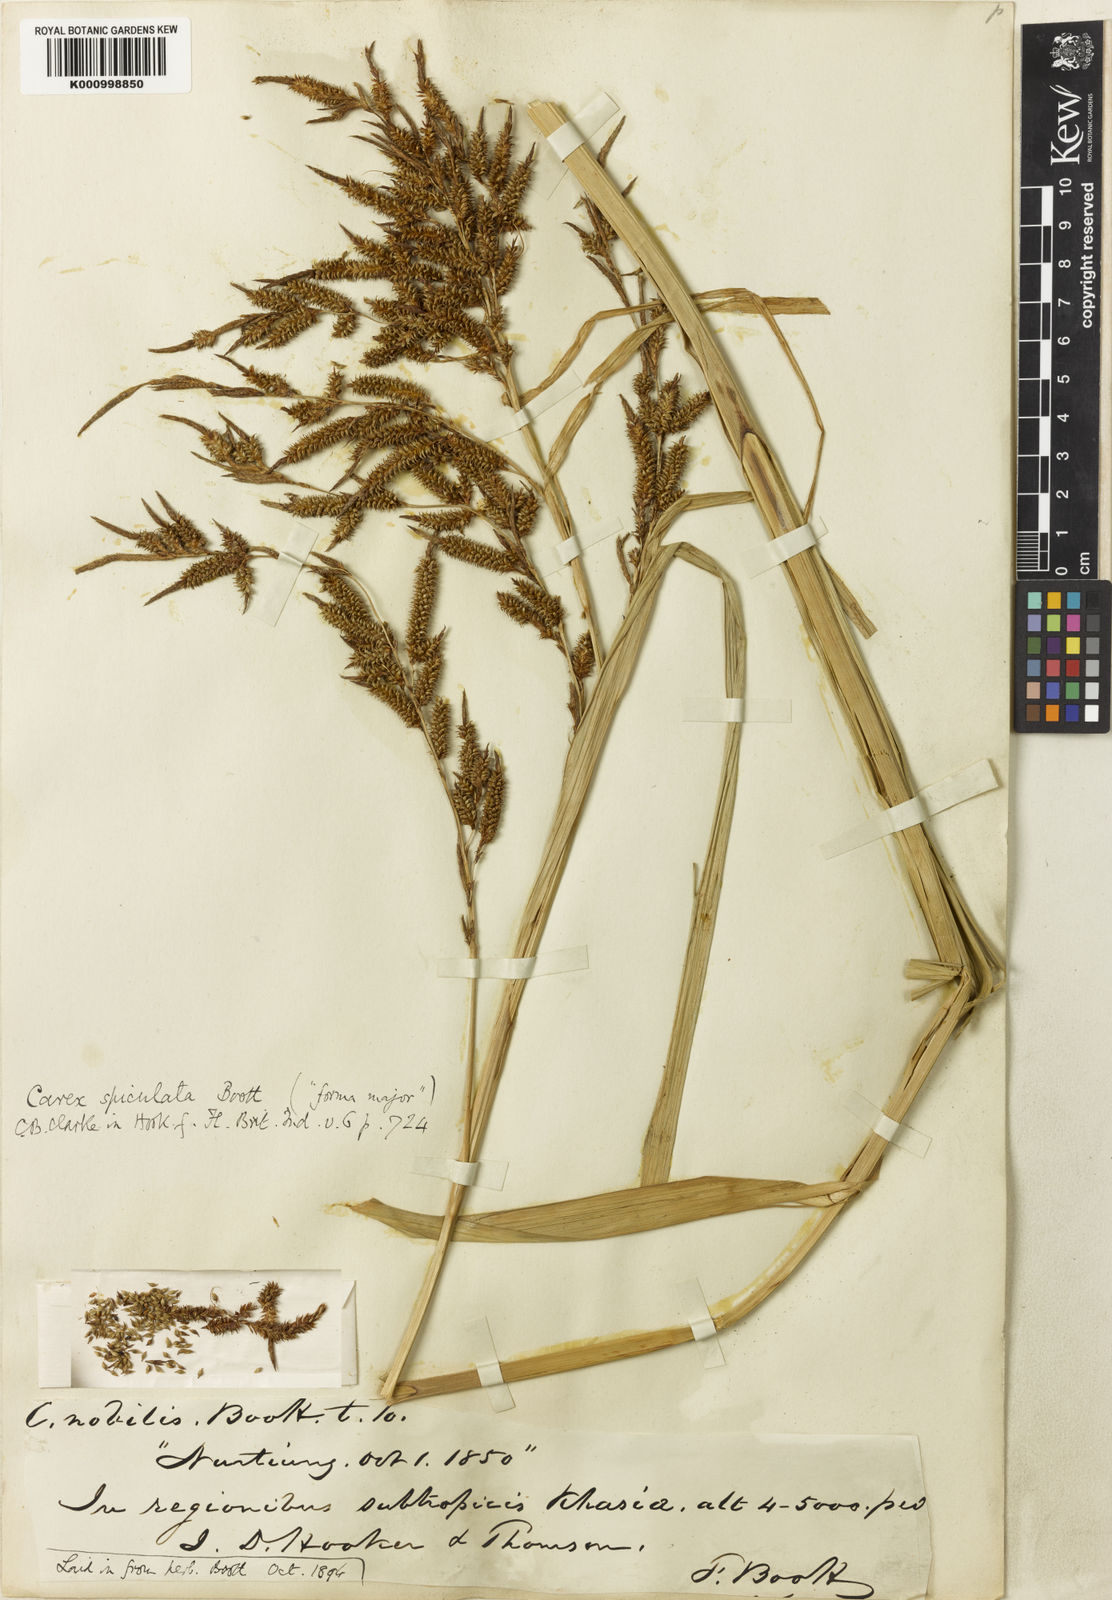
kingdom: Plantae
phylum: Tracheophyta
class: Liliopsida
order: Poales
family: Cyperaceae
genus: Carex
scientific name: Carex myosurus
